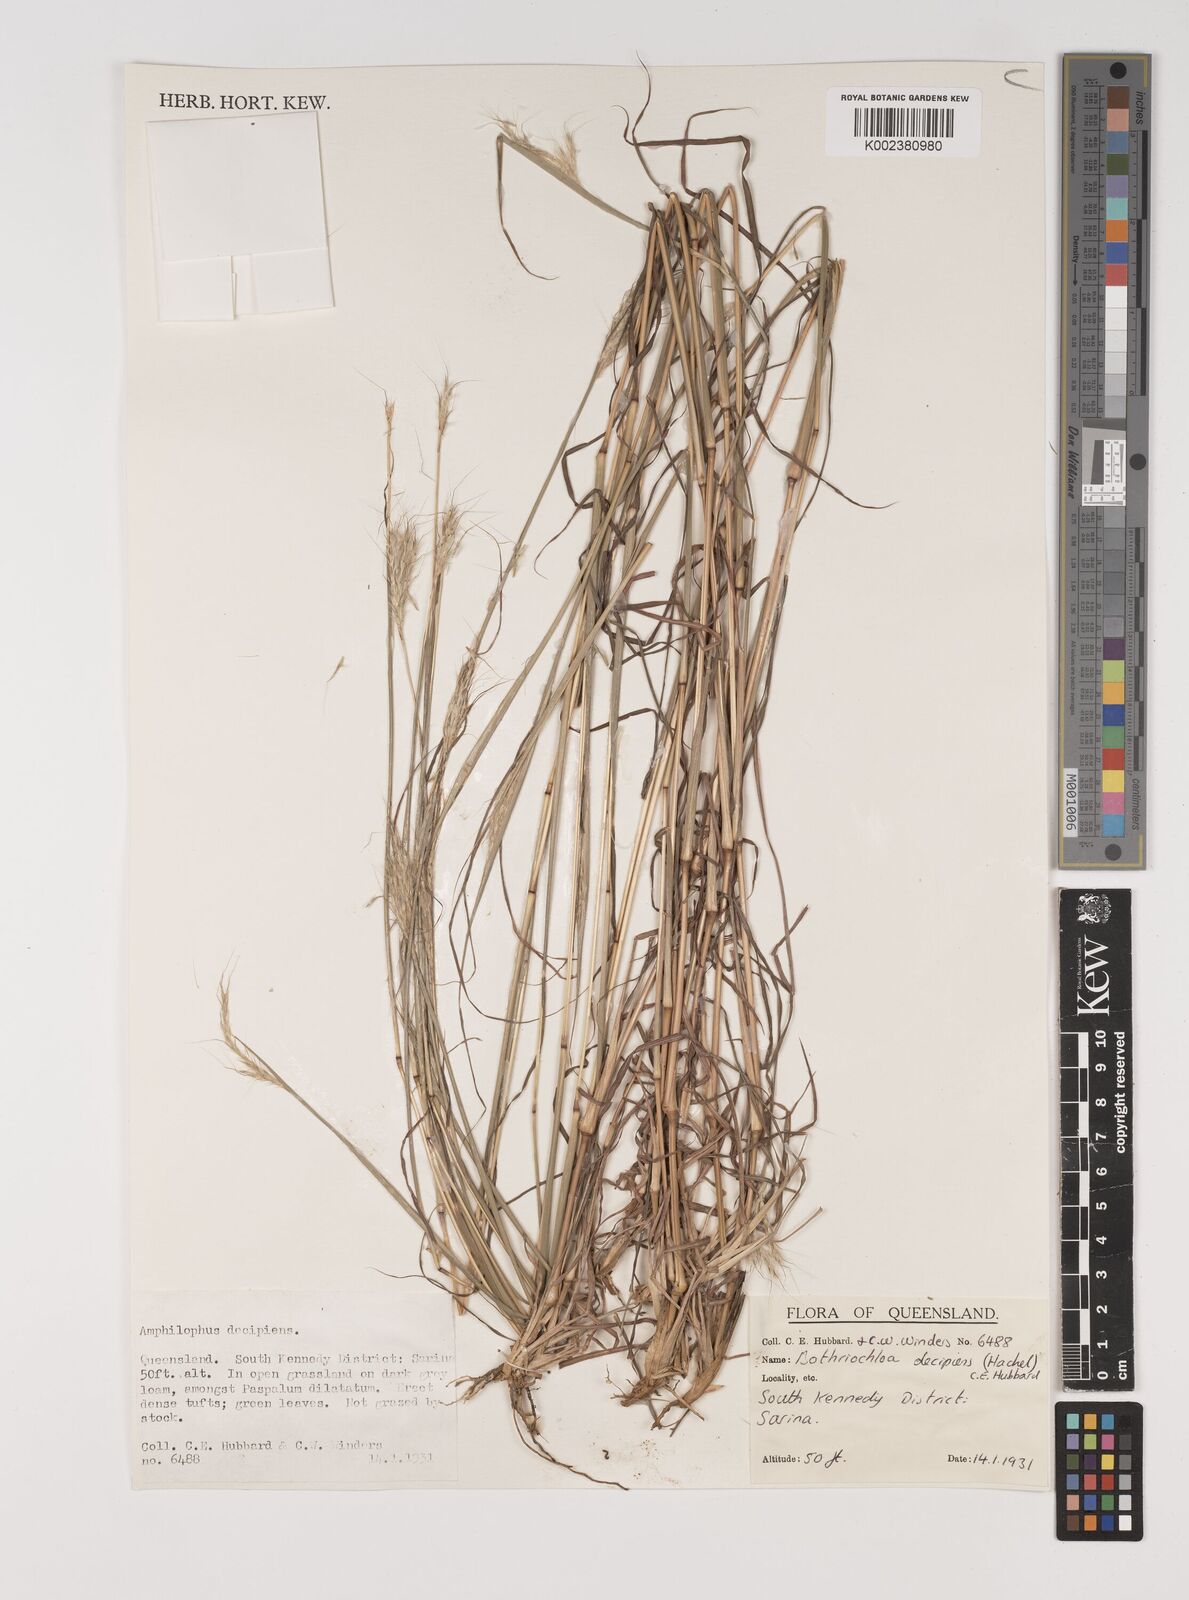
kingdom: Plantae
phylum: Tracheophyta
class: Liliopsida
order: Poales
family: Poaceae
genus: Bothriochloa
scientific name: Bothriochloa decipiens
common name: Pitted-bluegrass
